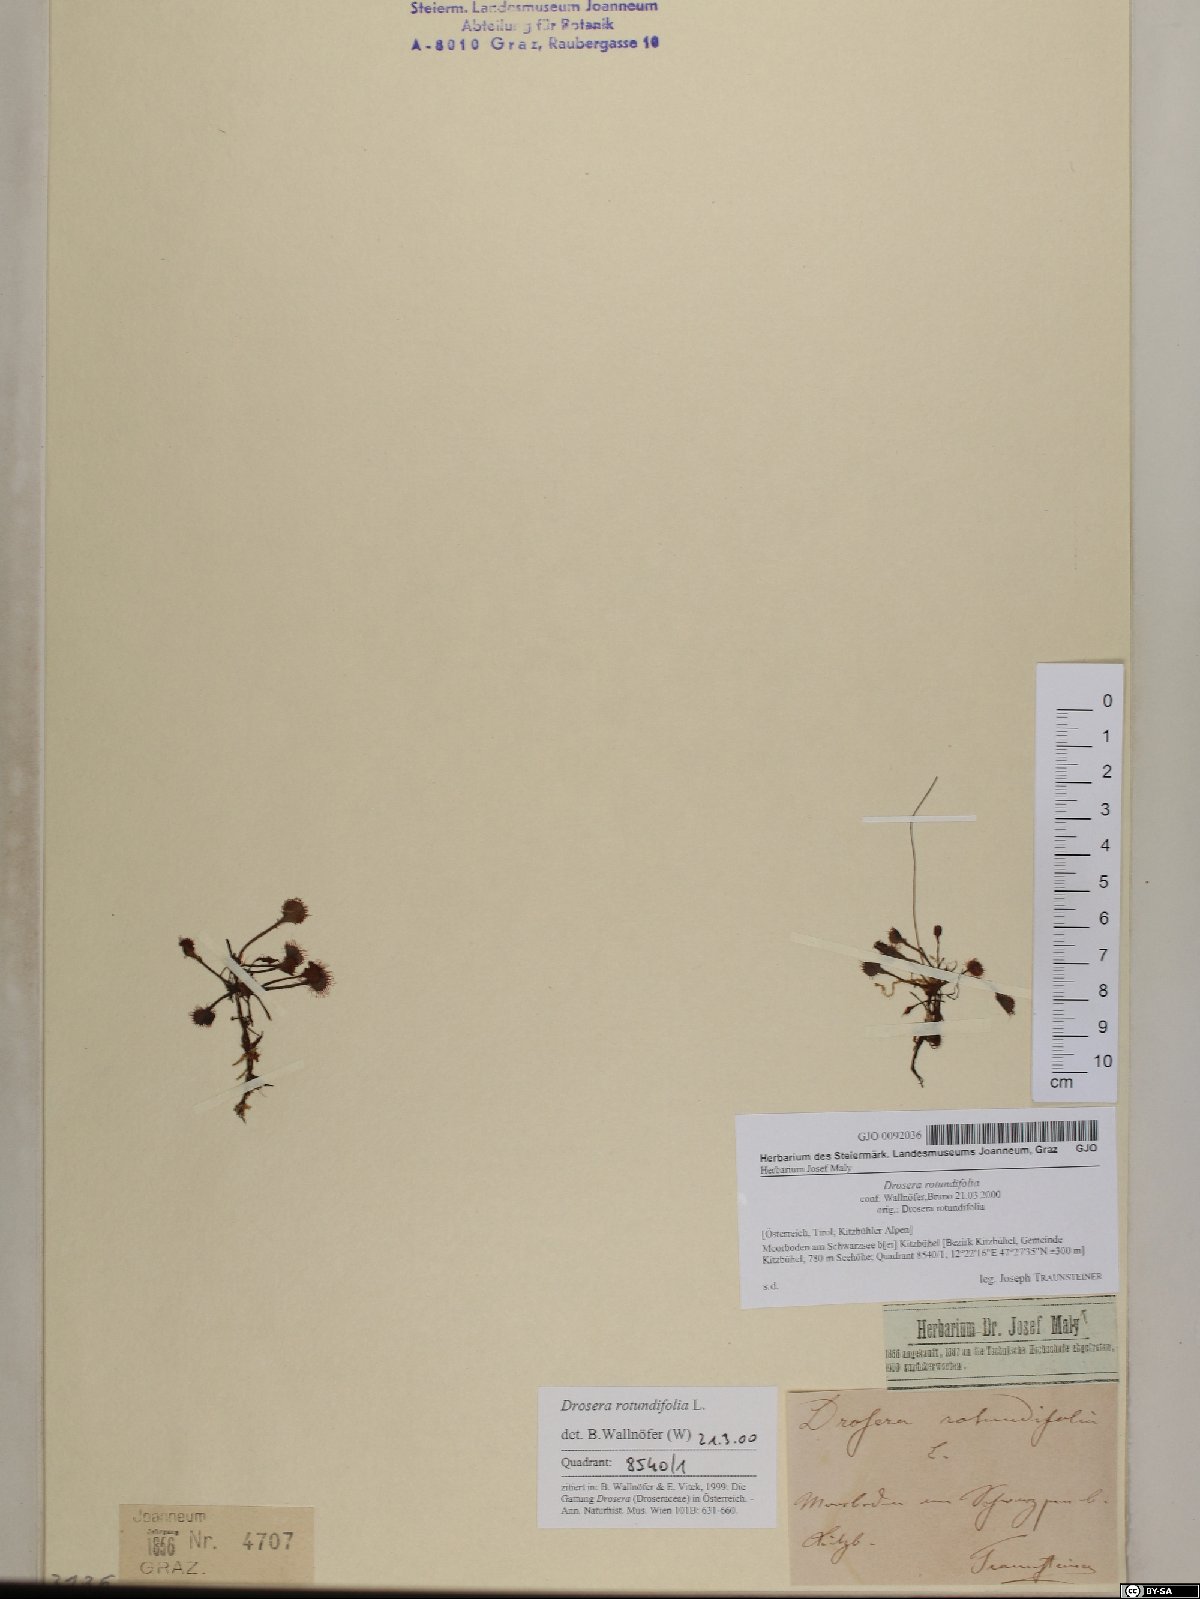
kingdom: Plantae
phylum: Tracheophyta
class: Magnoliopsida
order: Caryophyllales
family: Droseraceae
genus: Drosera
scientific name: Drosera rotundifolia
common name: Round-leaved sundew
